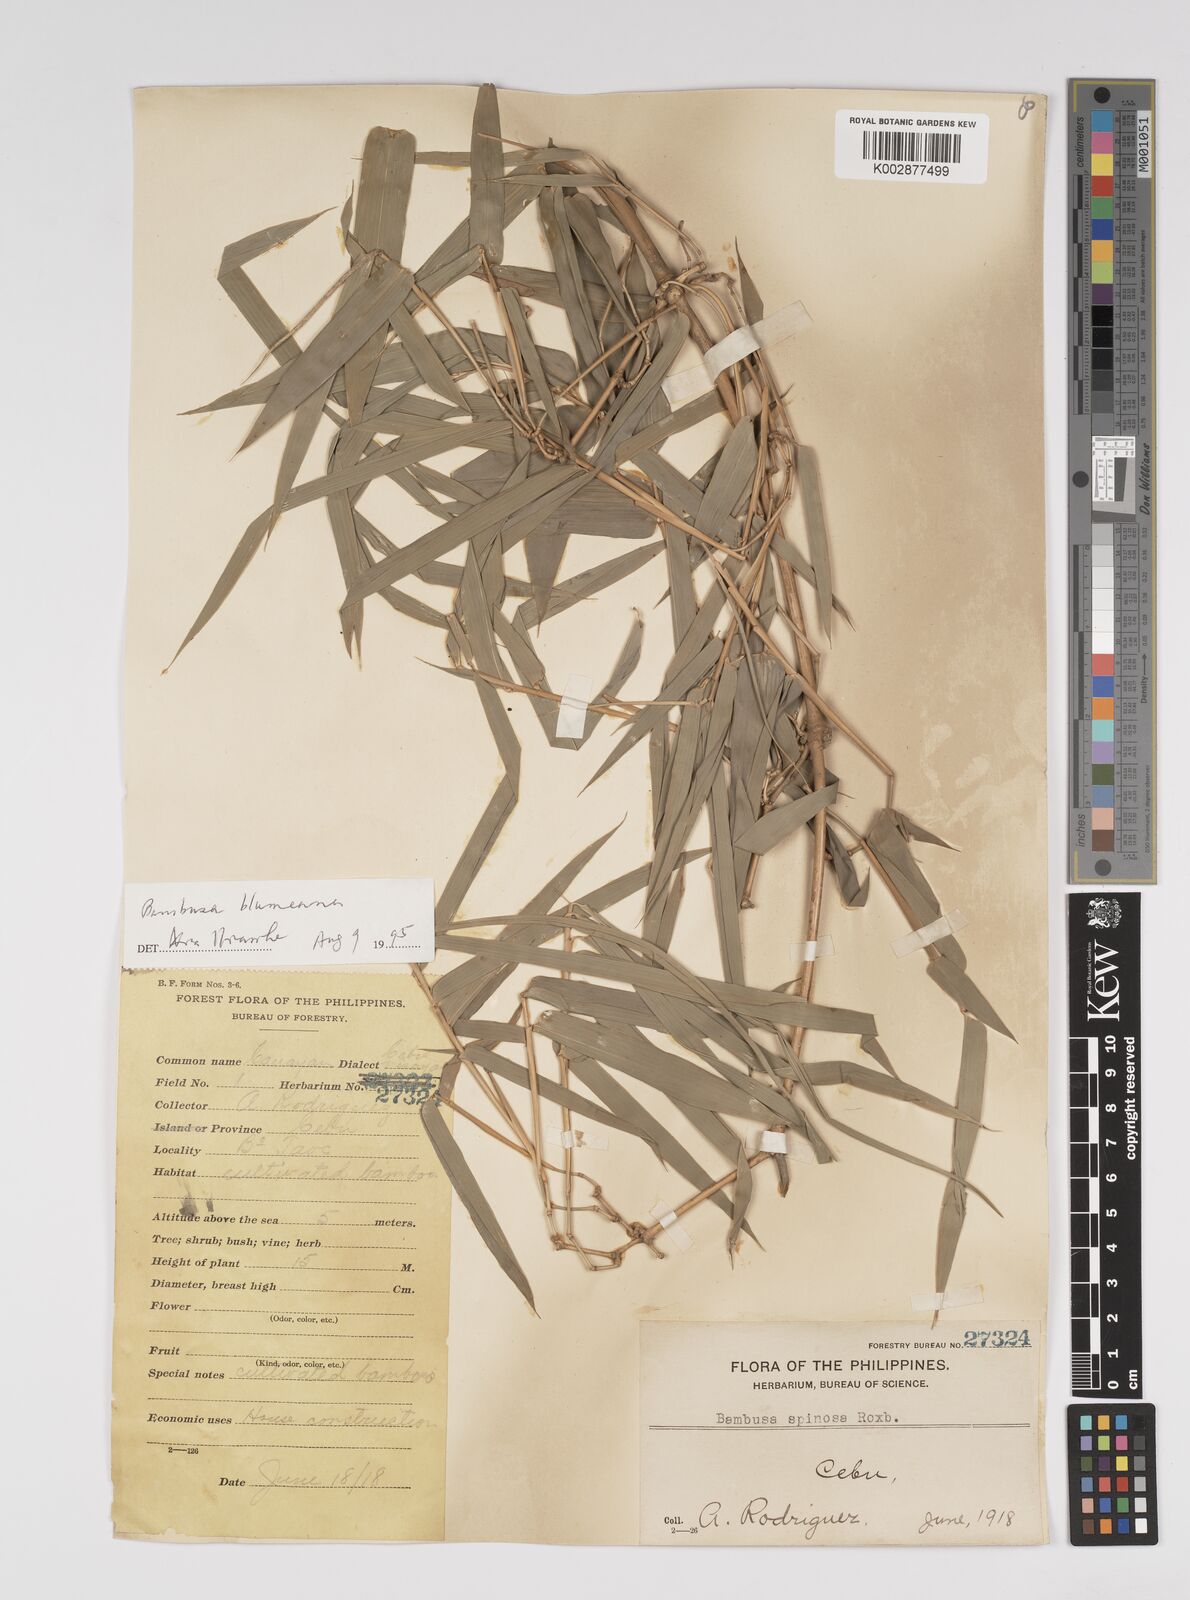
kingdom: Plantae
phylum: Tracheophyta
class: Liliopsida
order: Poales
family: Poaceae
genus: Bambusa
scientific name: Bambusa spinosa
